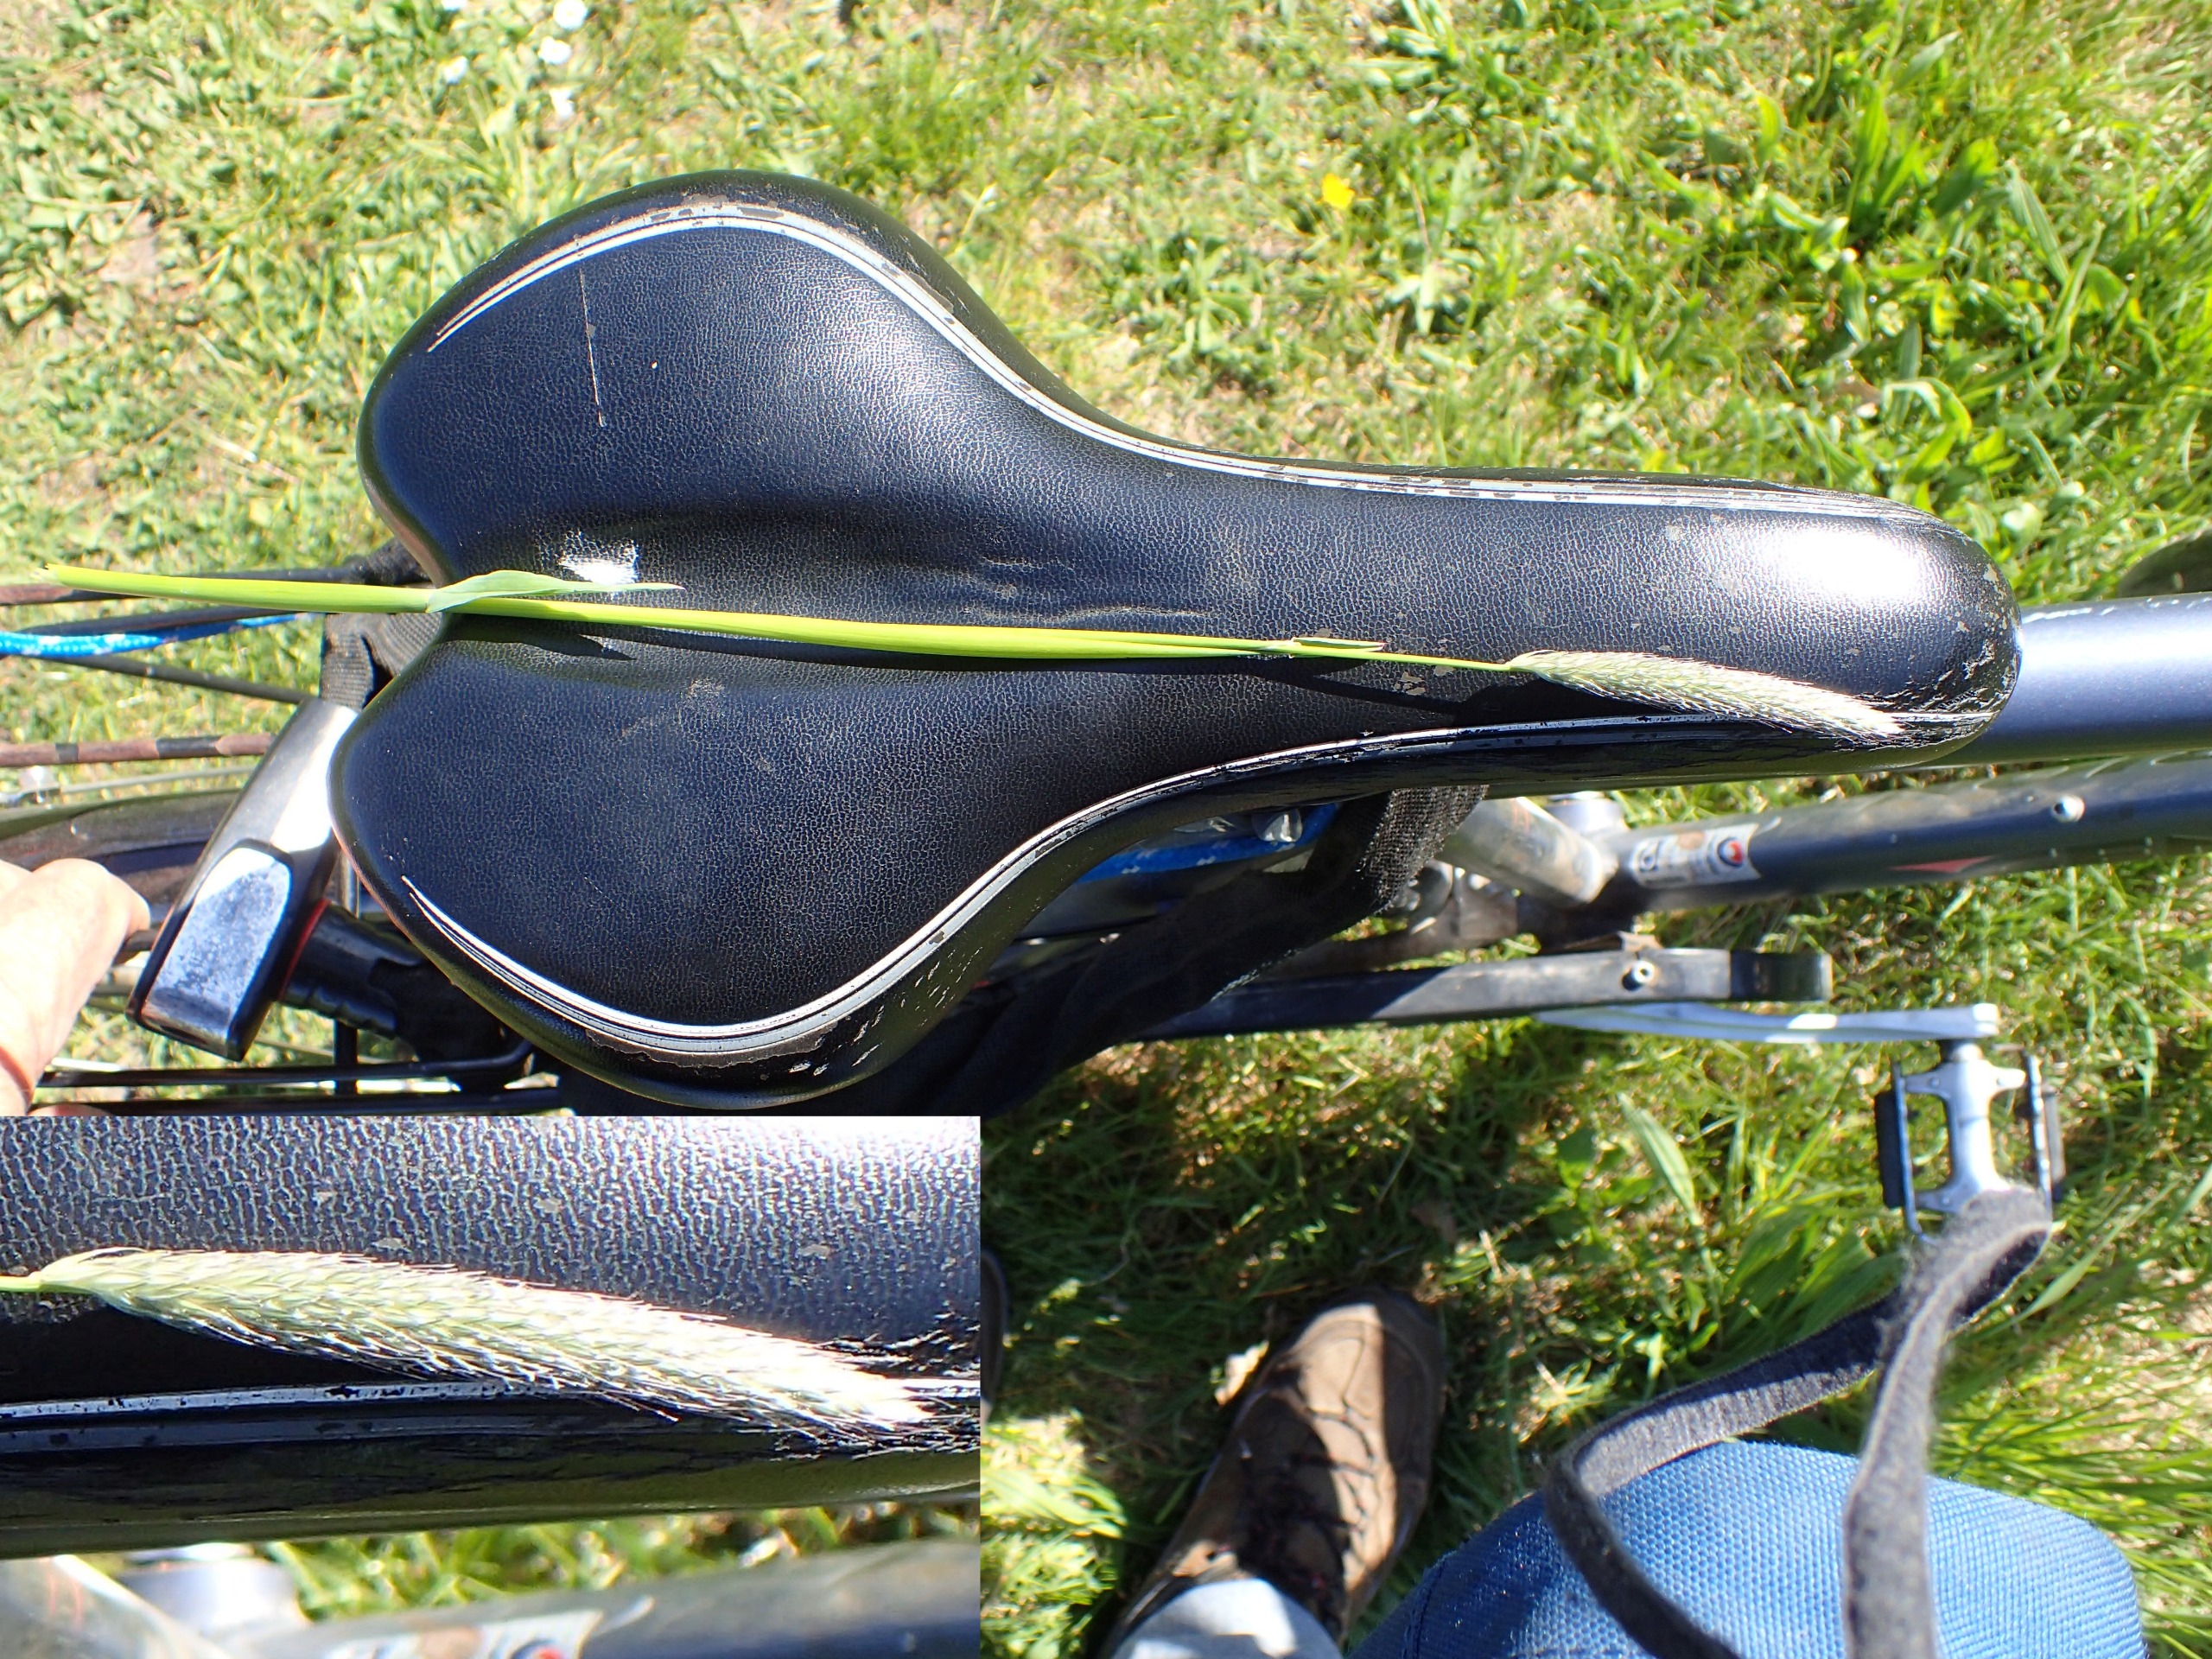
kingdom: Plantae
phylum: Tracheophyta
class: Liliopsida
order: Poales
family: Poaceae
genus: Alopecurus
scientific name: Alopecurus pratensis
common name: Eng-rævehale
